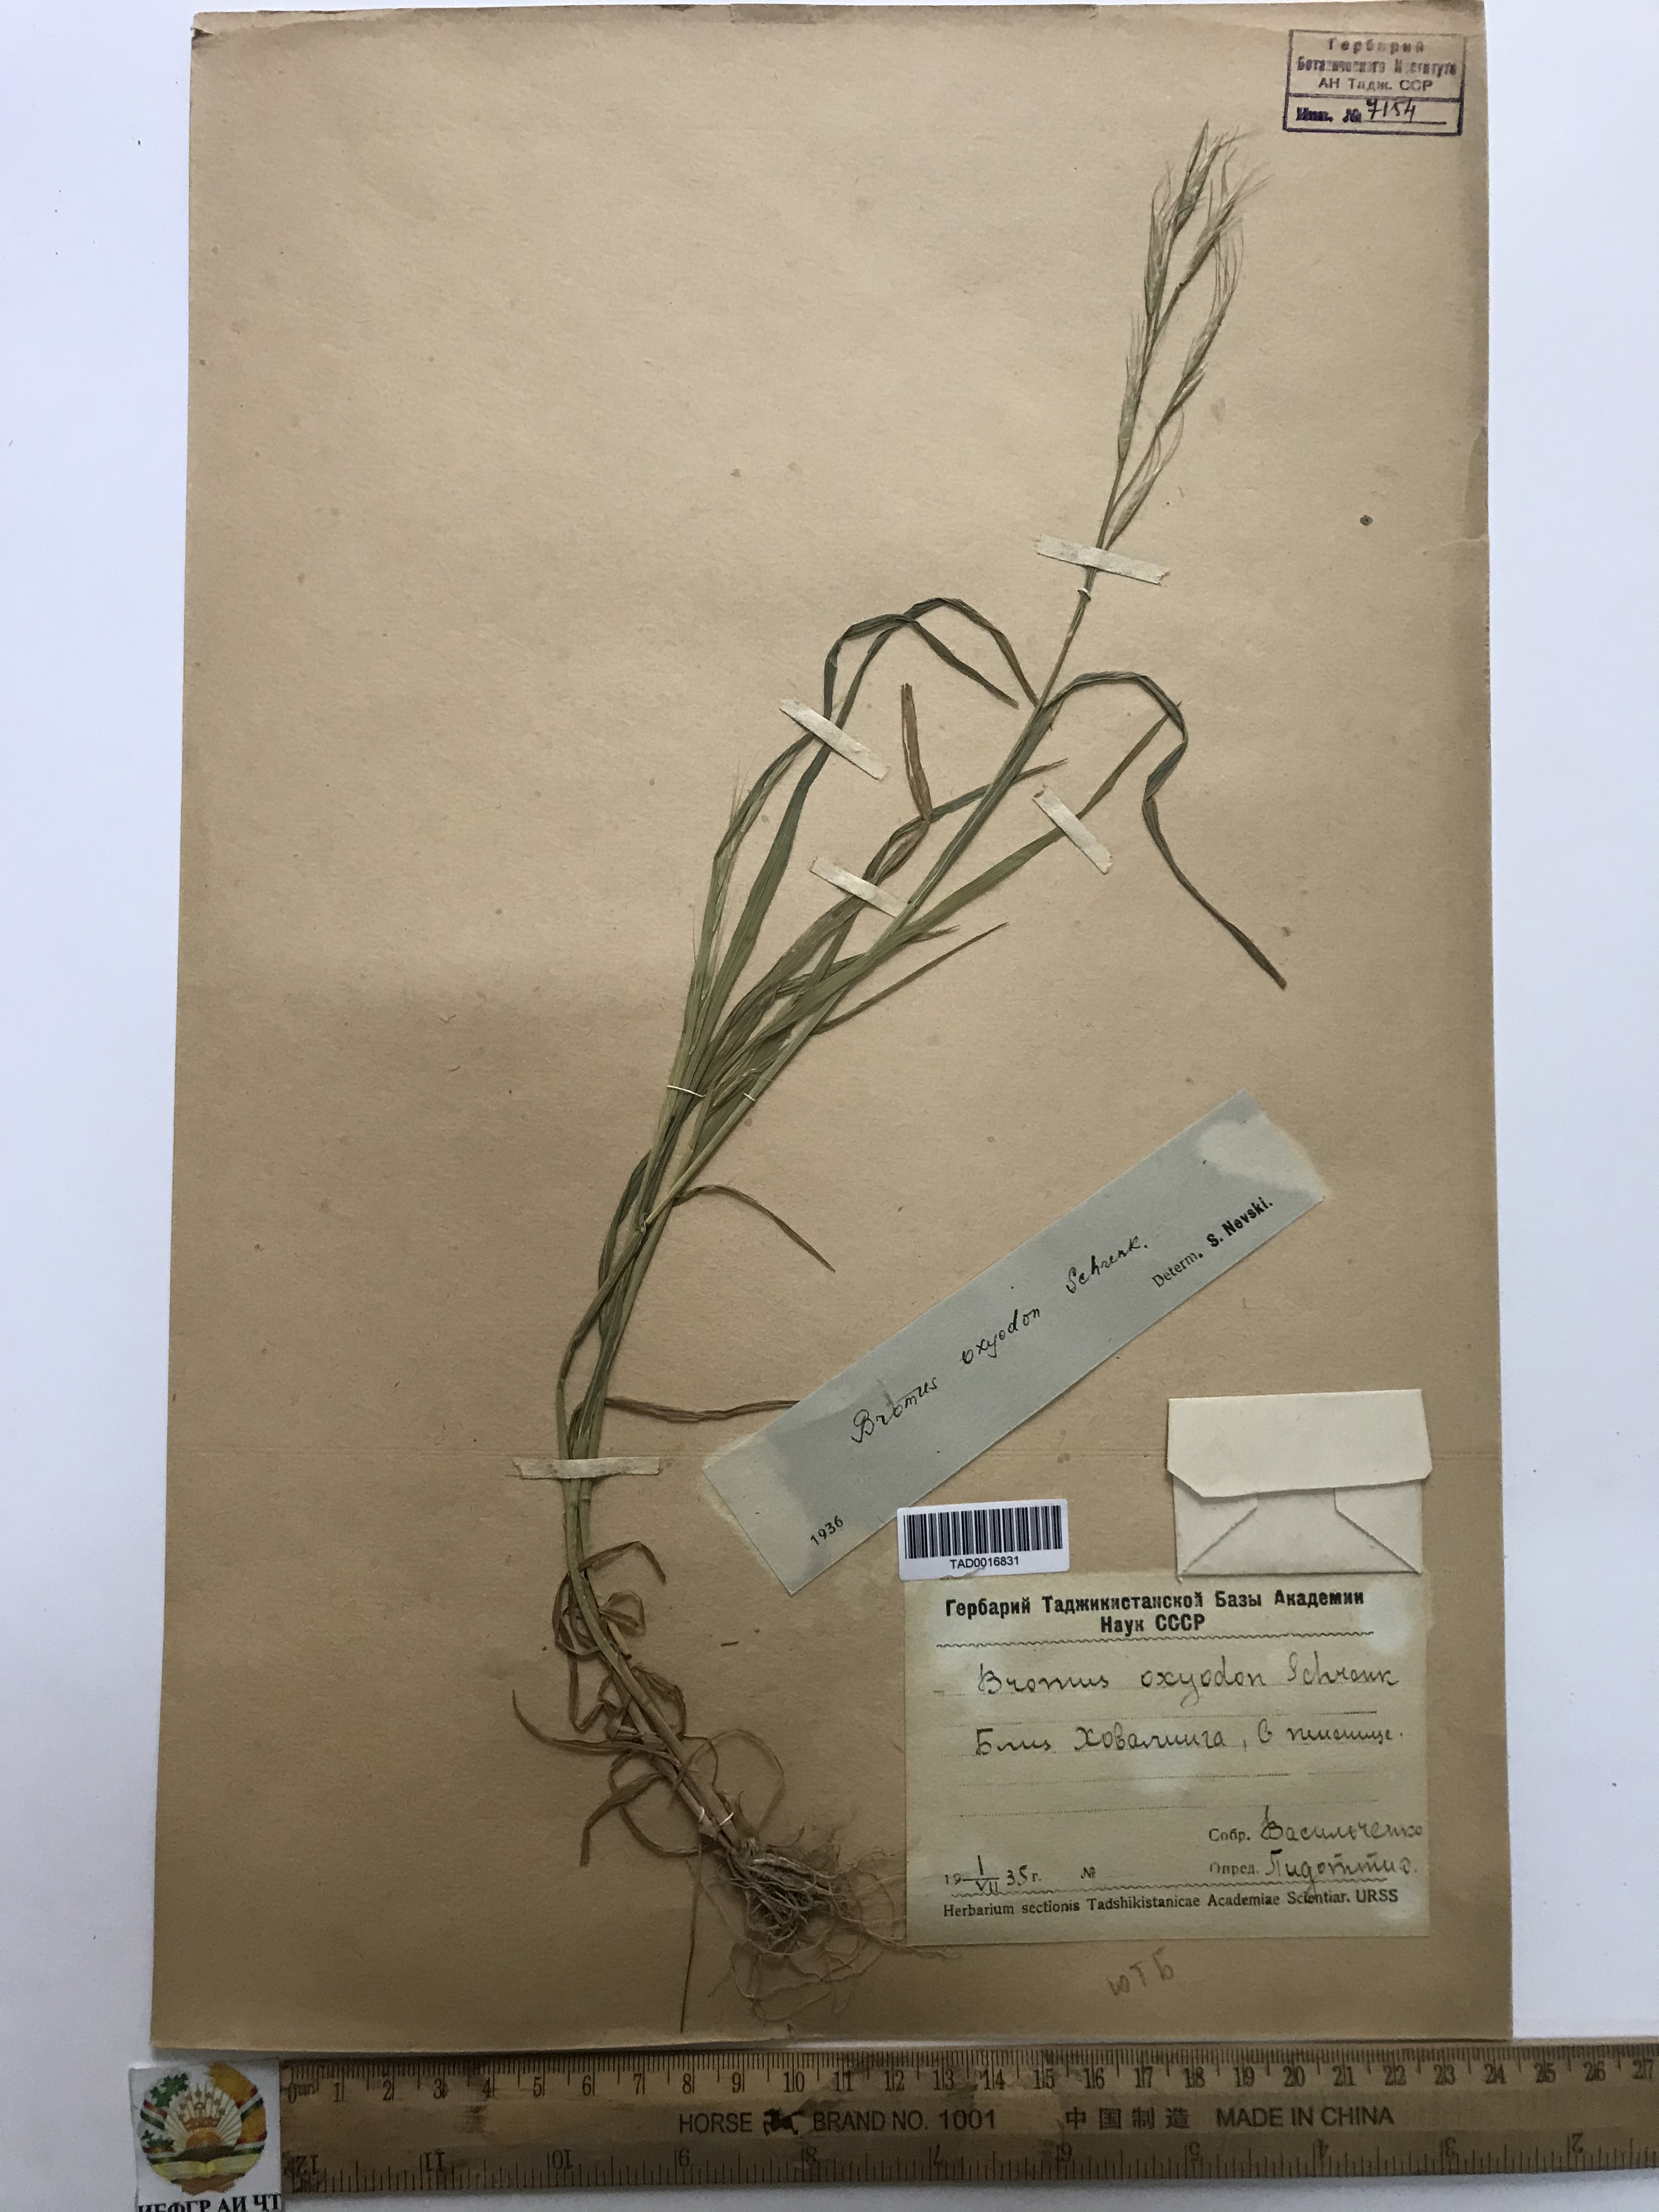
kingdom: Plantae
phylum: Tracheophyta
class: Liliopsida
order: Poales
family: Poaceae
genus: Bromus
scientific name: Bromus oxyodon
